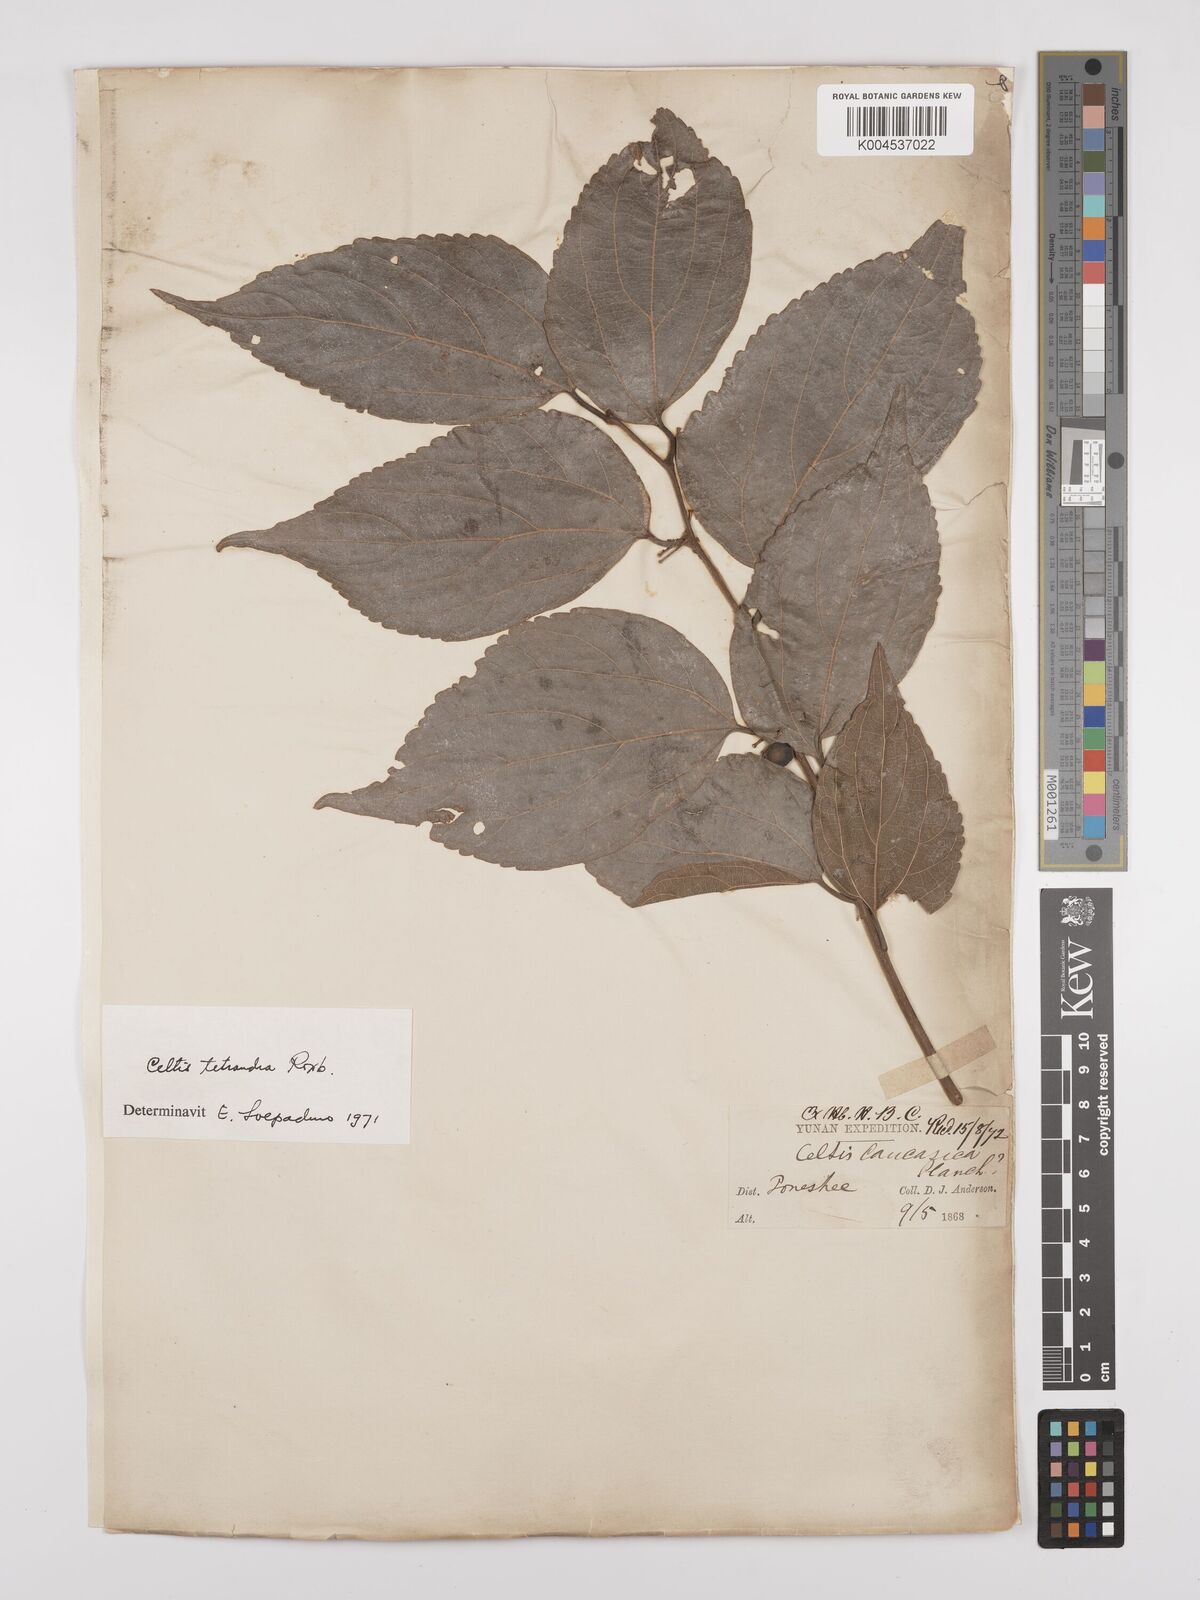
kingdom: Plantae
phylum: Tracheophyta
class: Magnoliopsida
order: Rosales
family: Cannabaceae
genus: Celtis
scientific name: Celtis tetrandra
